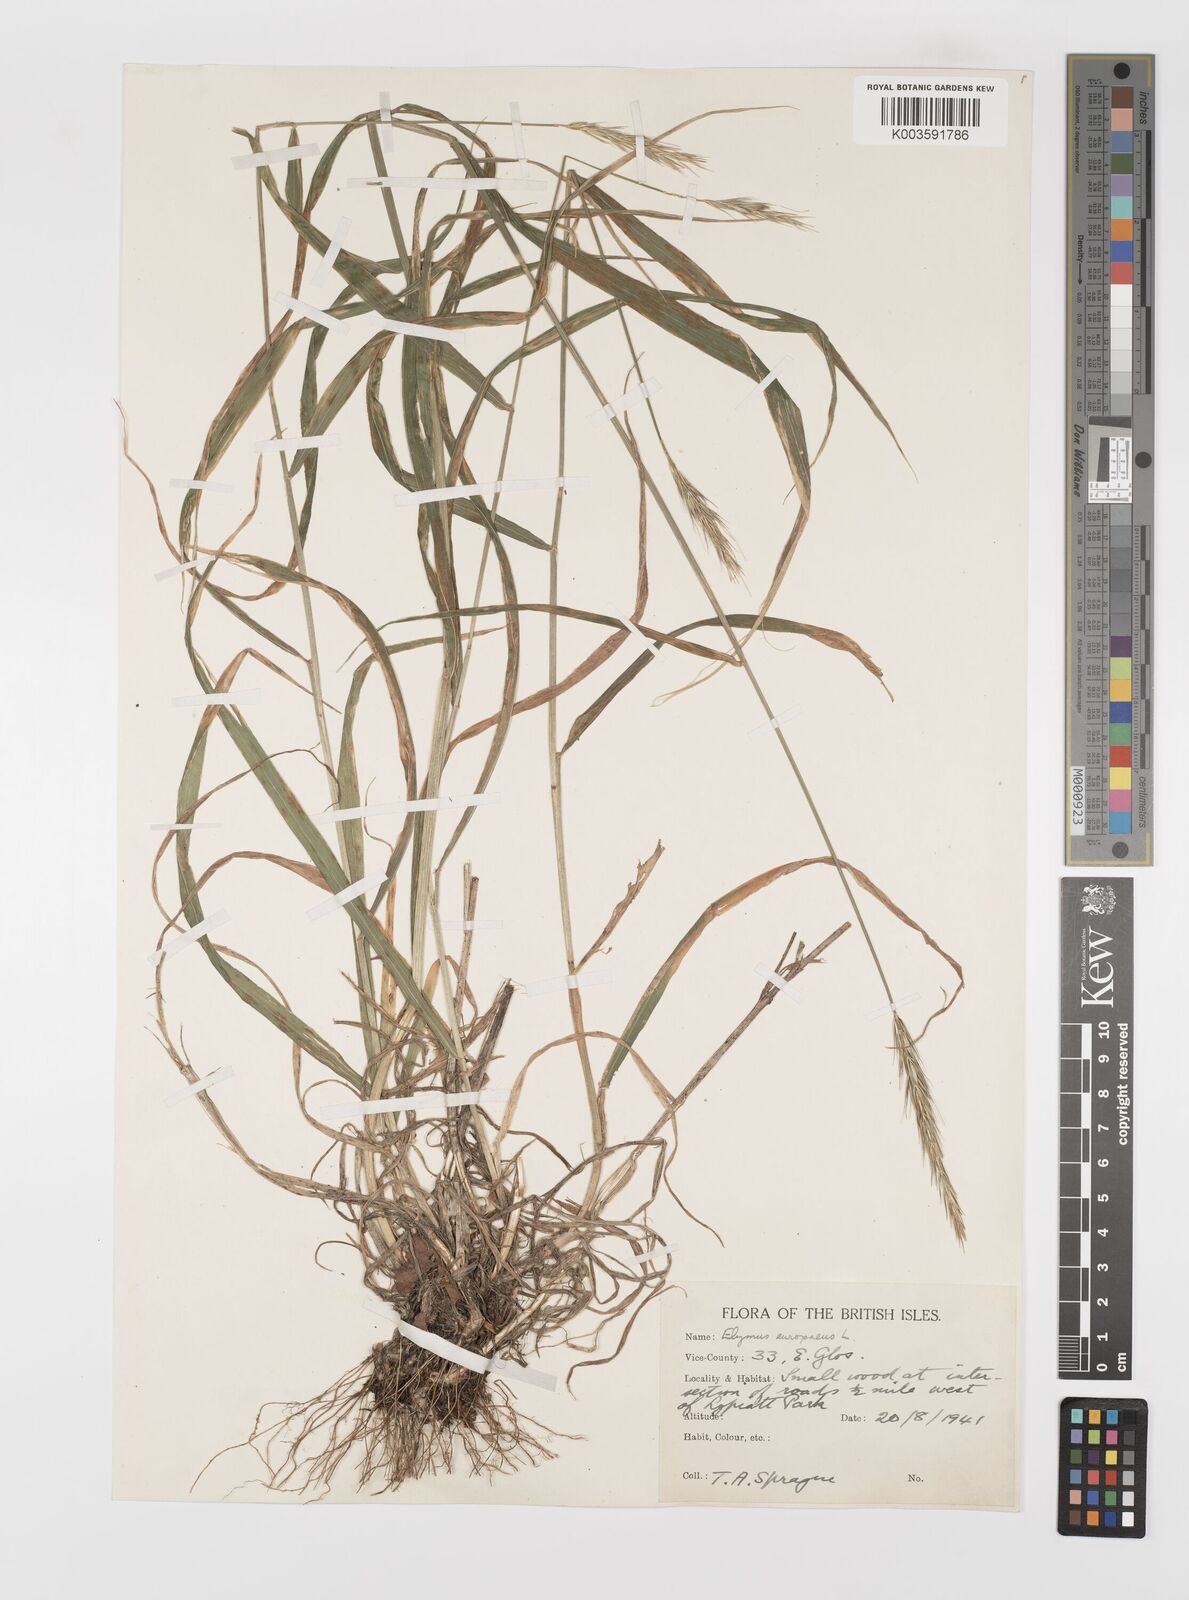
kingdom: Plantae
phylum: Tracheophyta
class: Liliopsida
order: Poales
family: Poaceae
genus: Hordelymus
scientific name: Hordelymus europaeus
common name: Wood-barley
